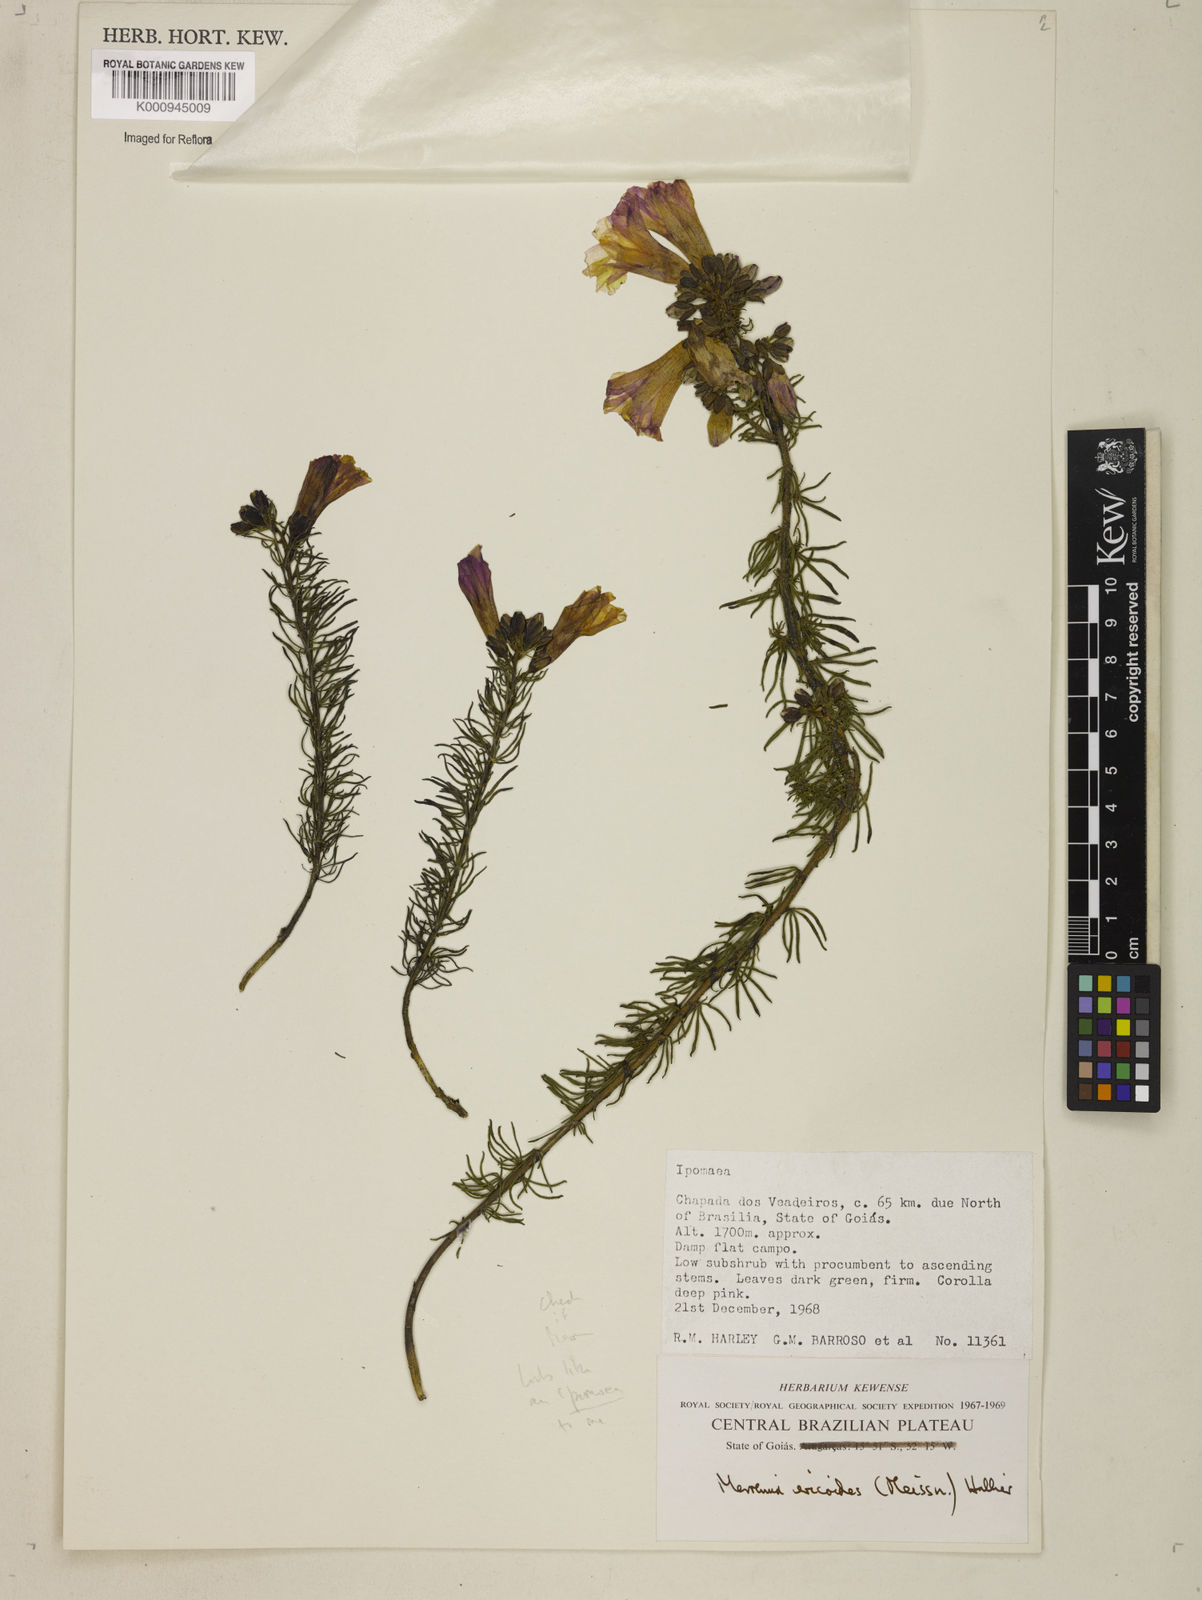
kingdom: Plantae
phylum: Tracheophyta
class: Magnoliopsida
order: Solanales
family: Convolvulaceae
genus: Ipomoea
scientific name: Ipomoea angustissima
